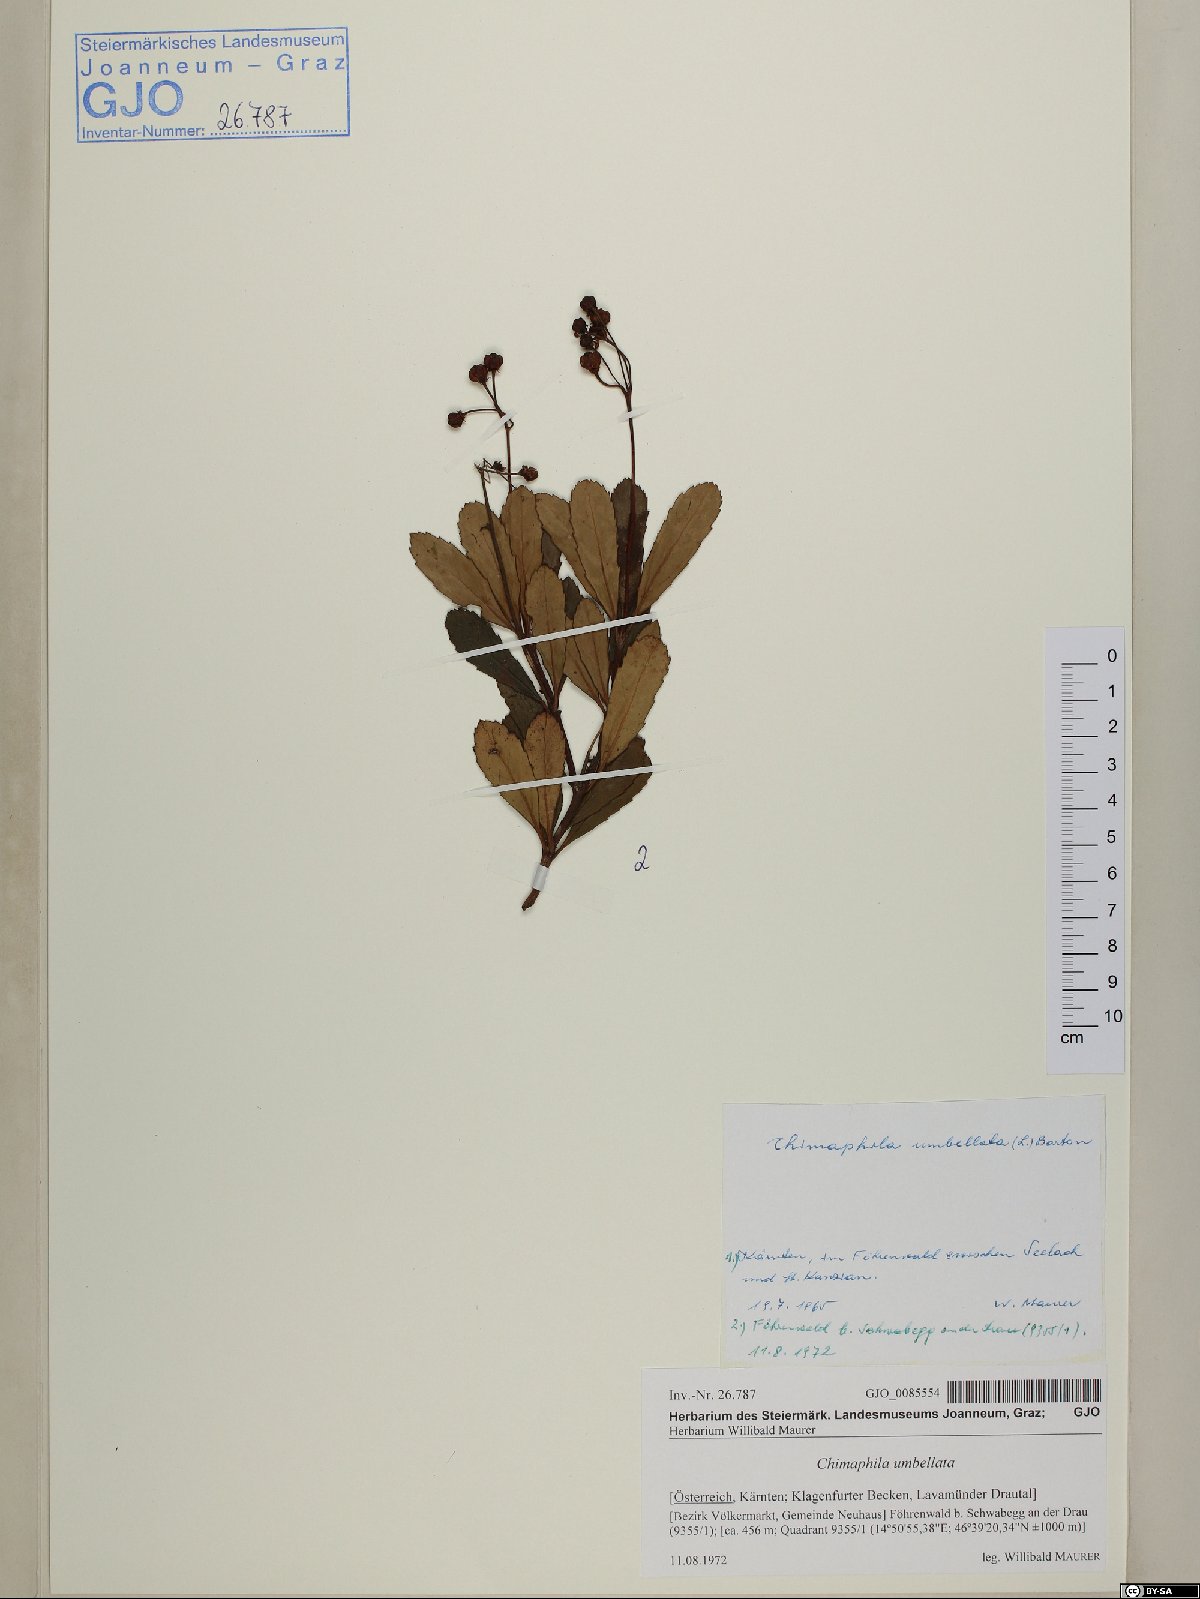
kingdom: Plantae
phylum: Tracheophyta
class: Magnoliopsida
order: Ericales
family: Ericaceae
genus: Chimaphila
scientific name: Chimaphila umbellata
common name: Pipsissewa
